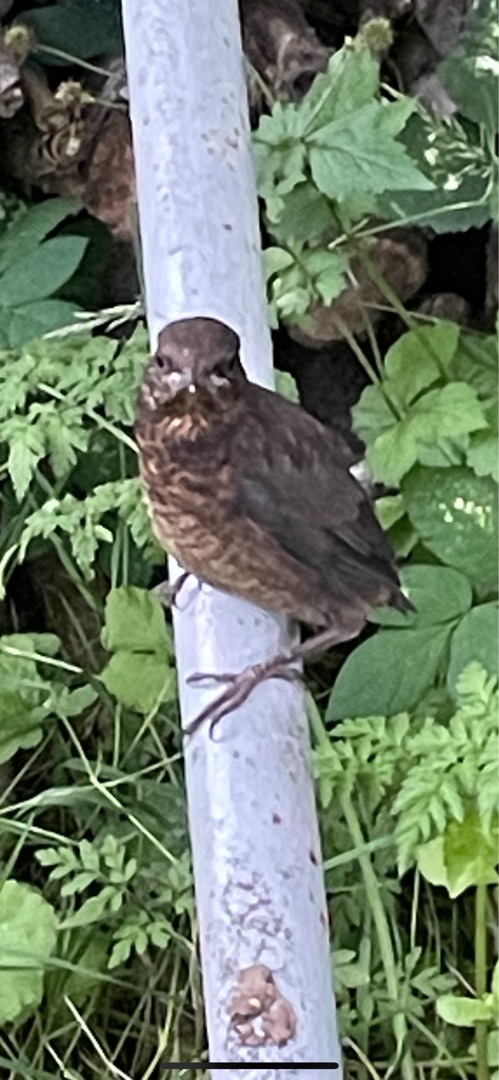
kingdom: Animalia
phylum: Chordata
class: Aves
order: Passeriformes
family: Turdidae
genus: Turdus
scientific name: Turdus merula
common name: Solsort
